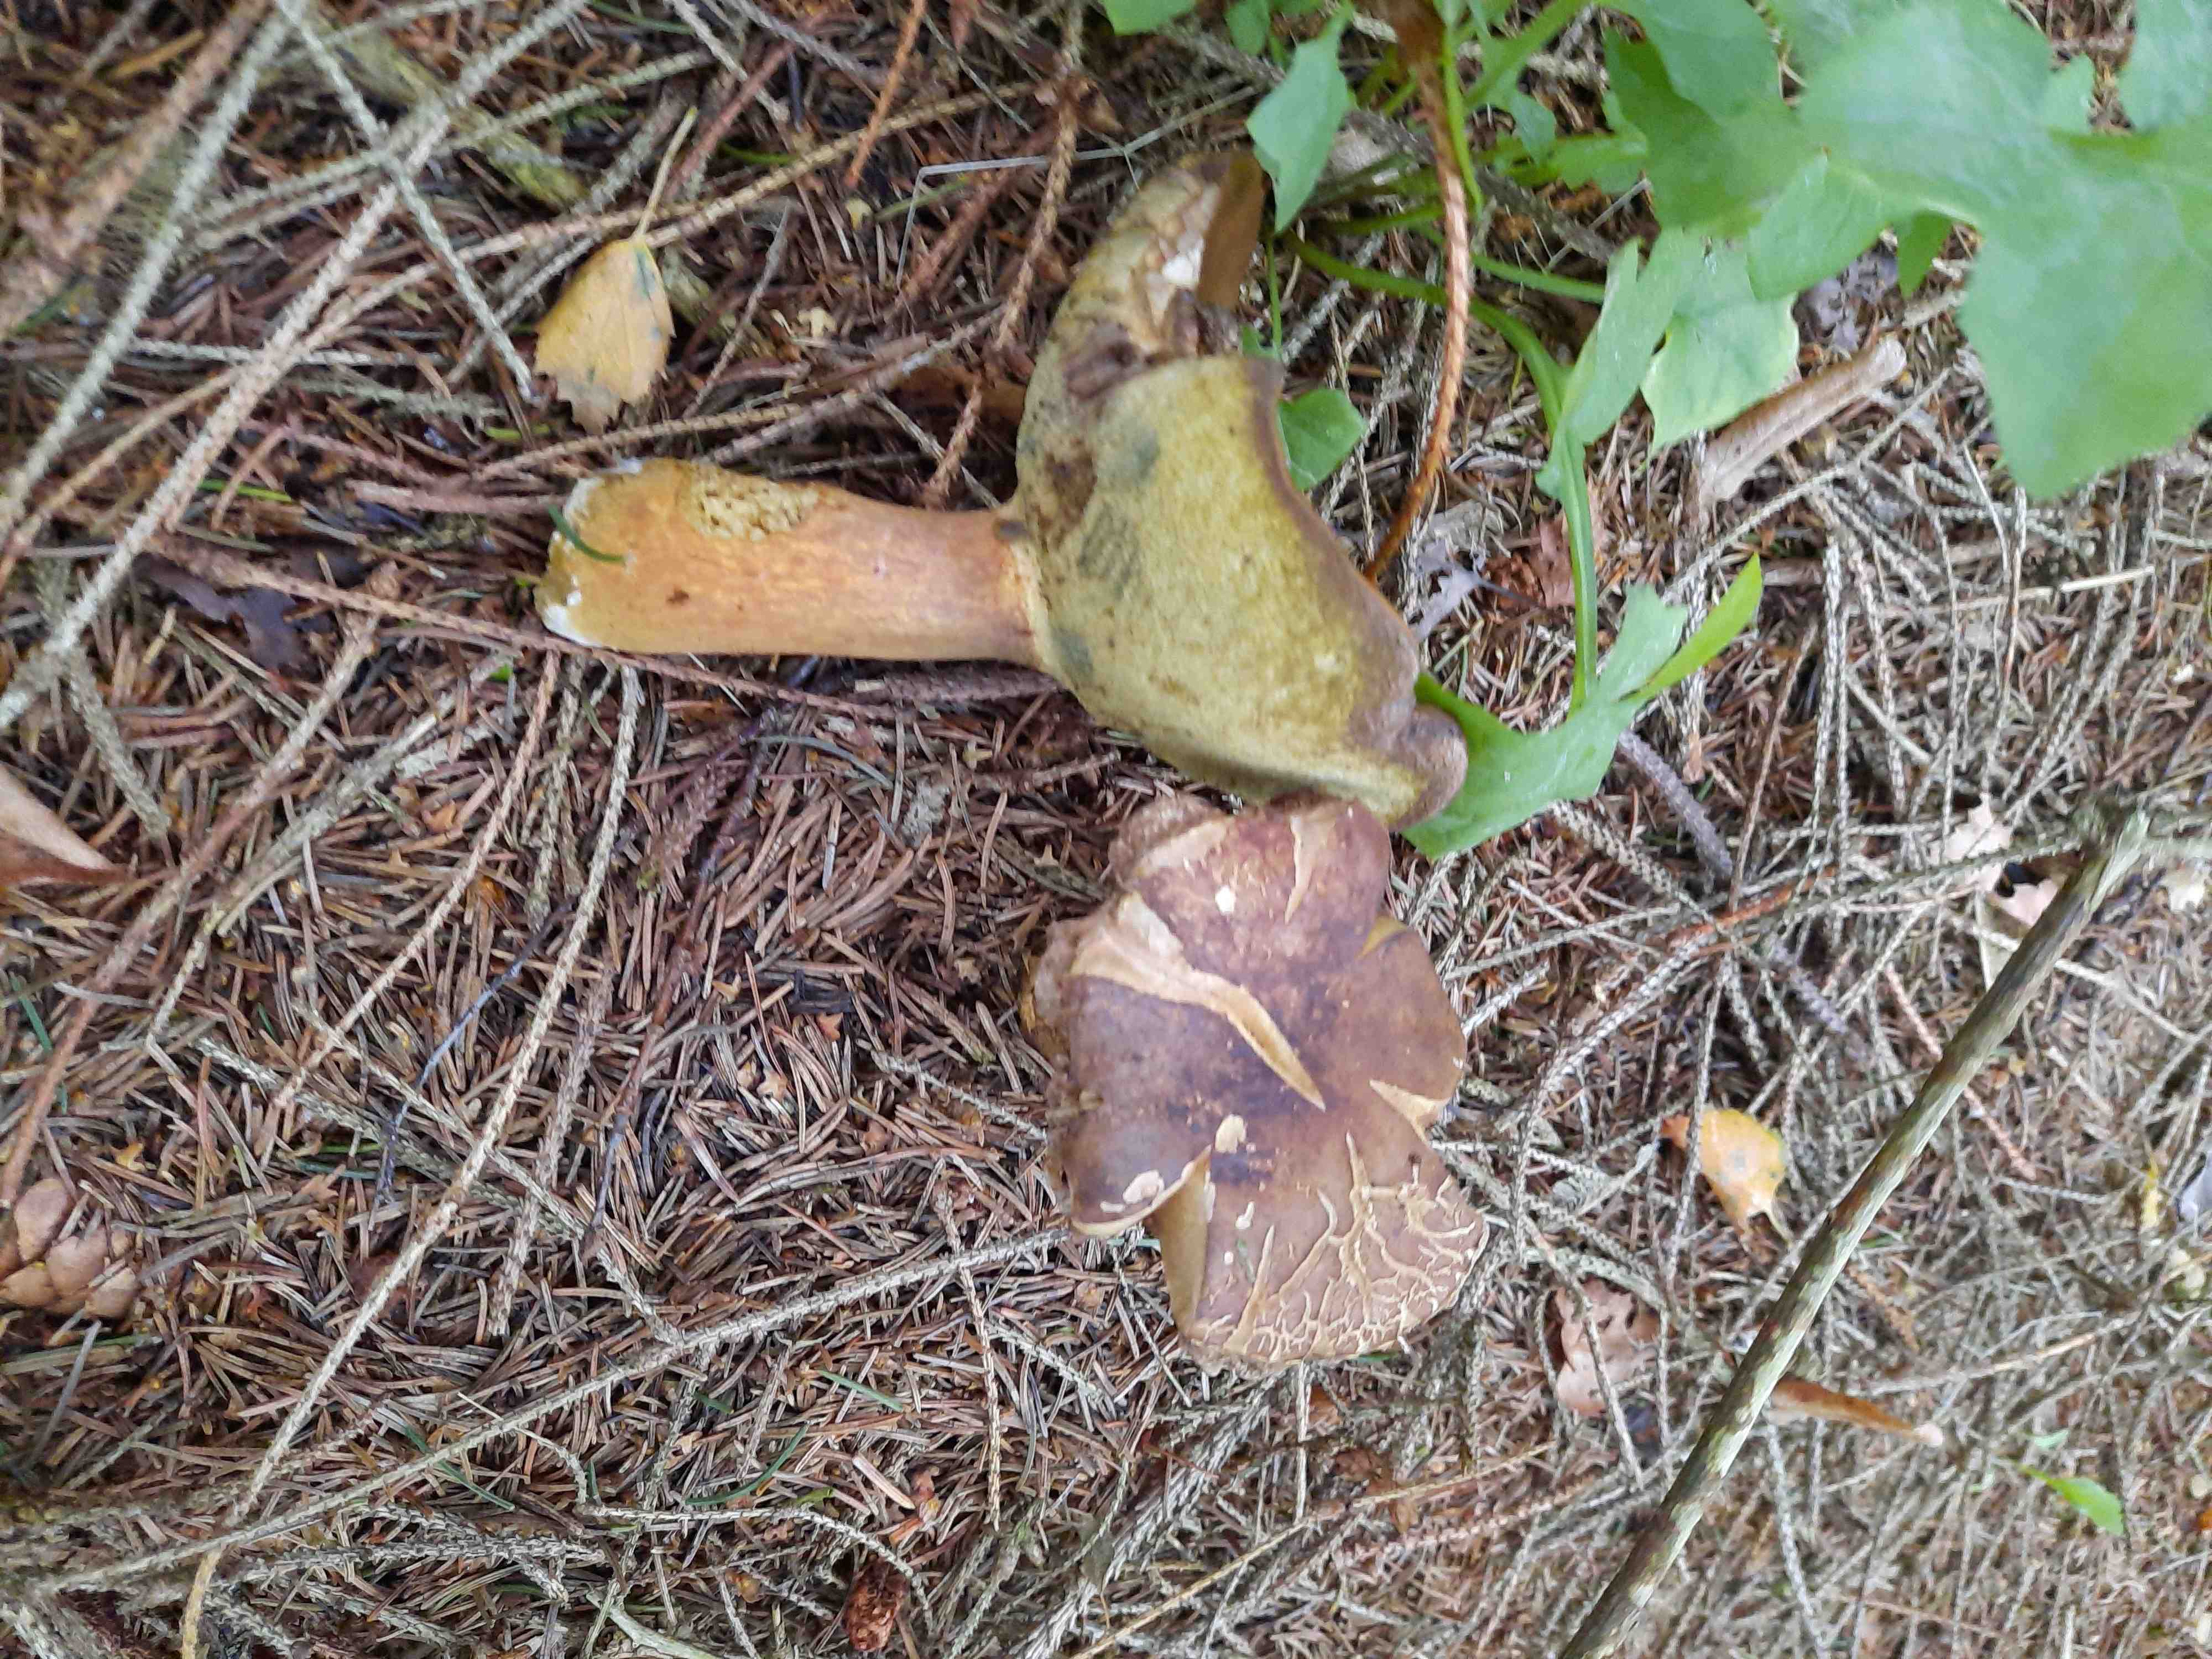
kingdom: Fungi
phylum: Basidiomycota
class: Agaricomycetes
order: Boletales
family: Boletaceae
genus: Imleria
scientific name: Imleria badia
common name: brunstokket rørhat
